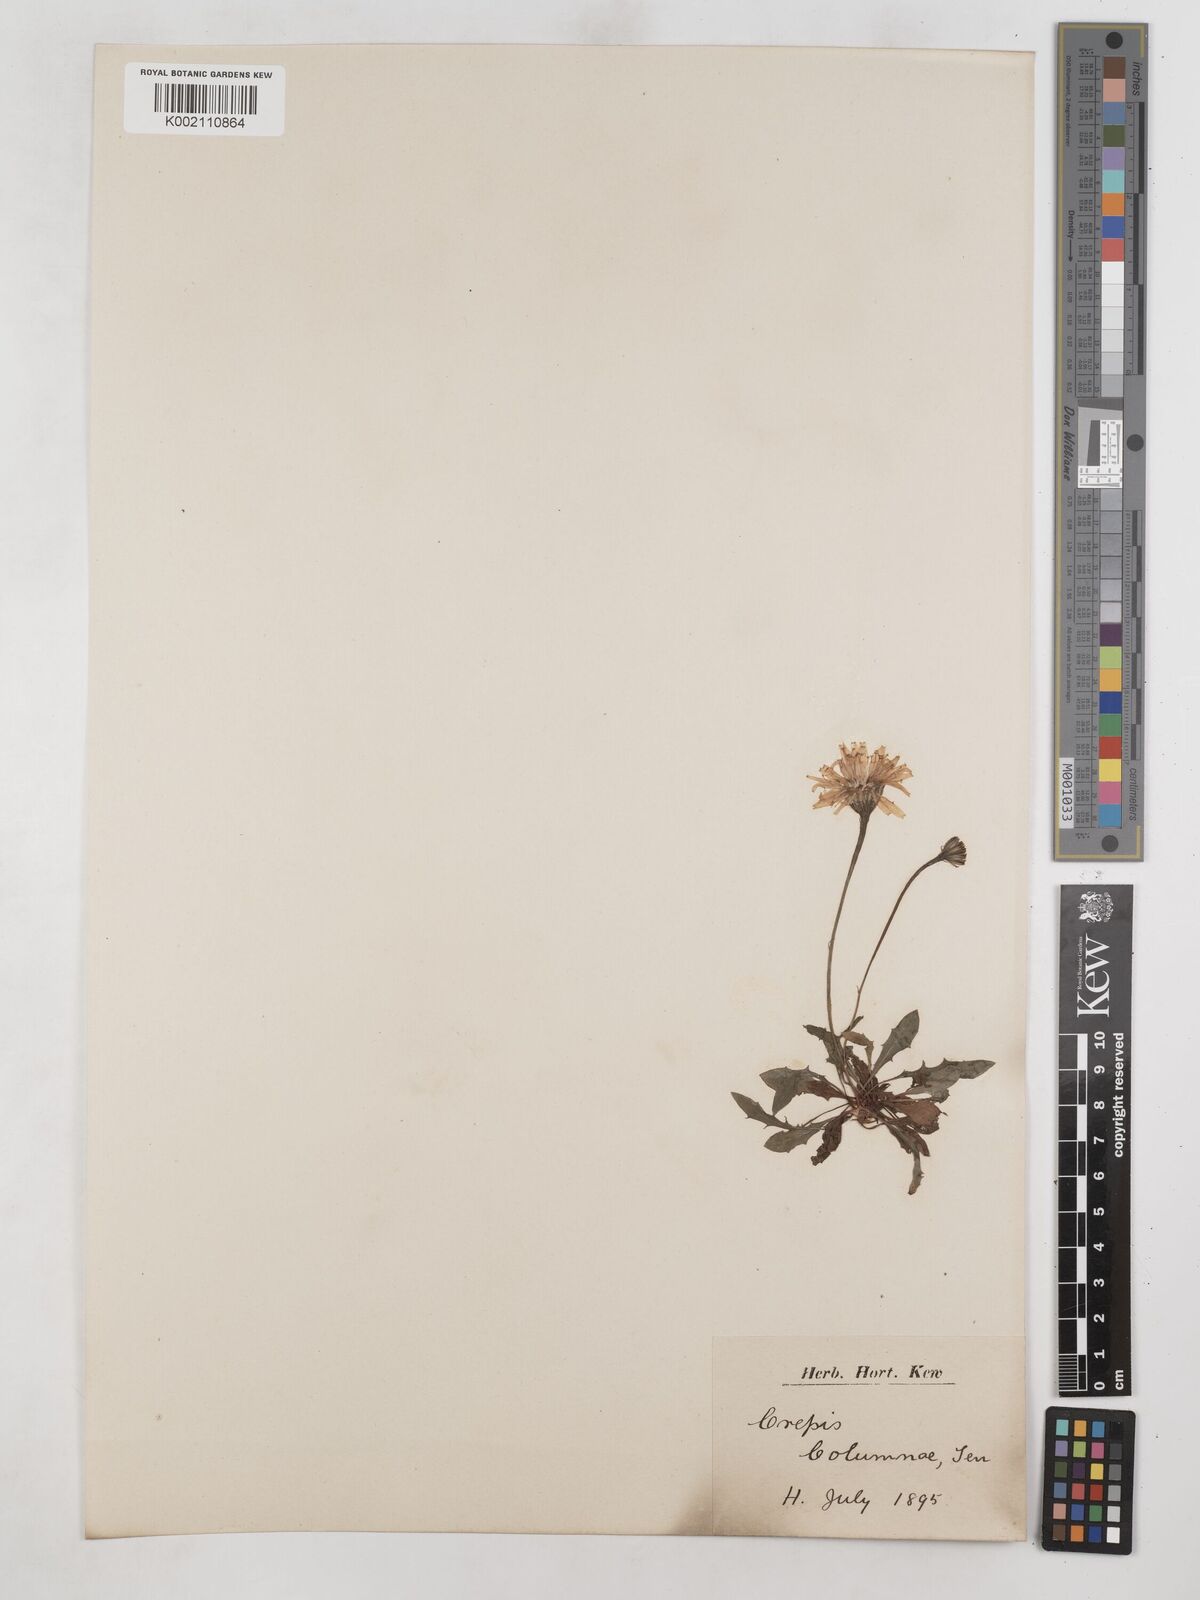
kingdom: Plantae
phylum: Tracheophyta
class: Magnoliopsida
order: Asterales
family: Asteraceae
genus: Crepis
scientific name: Crepis aurea
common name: Golden hawk's-beard
